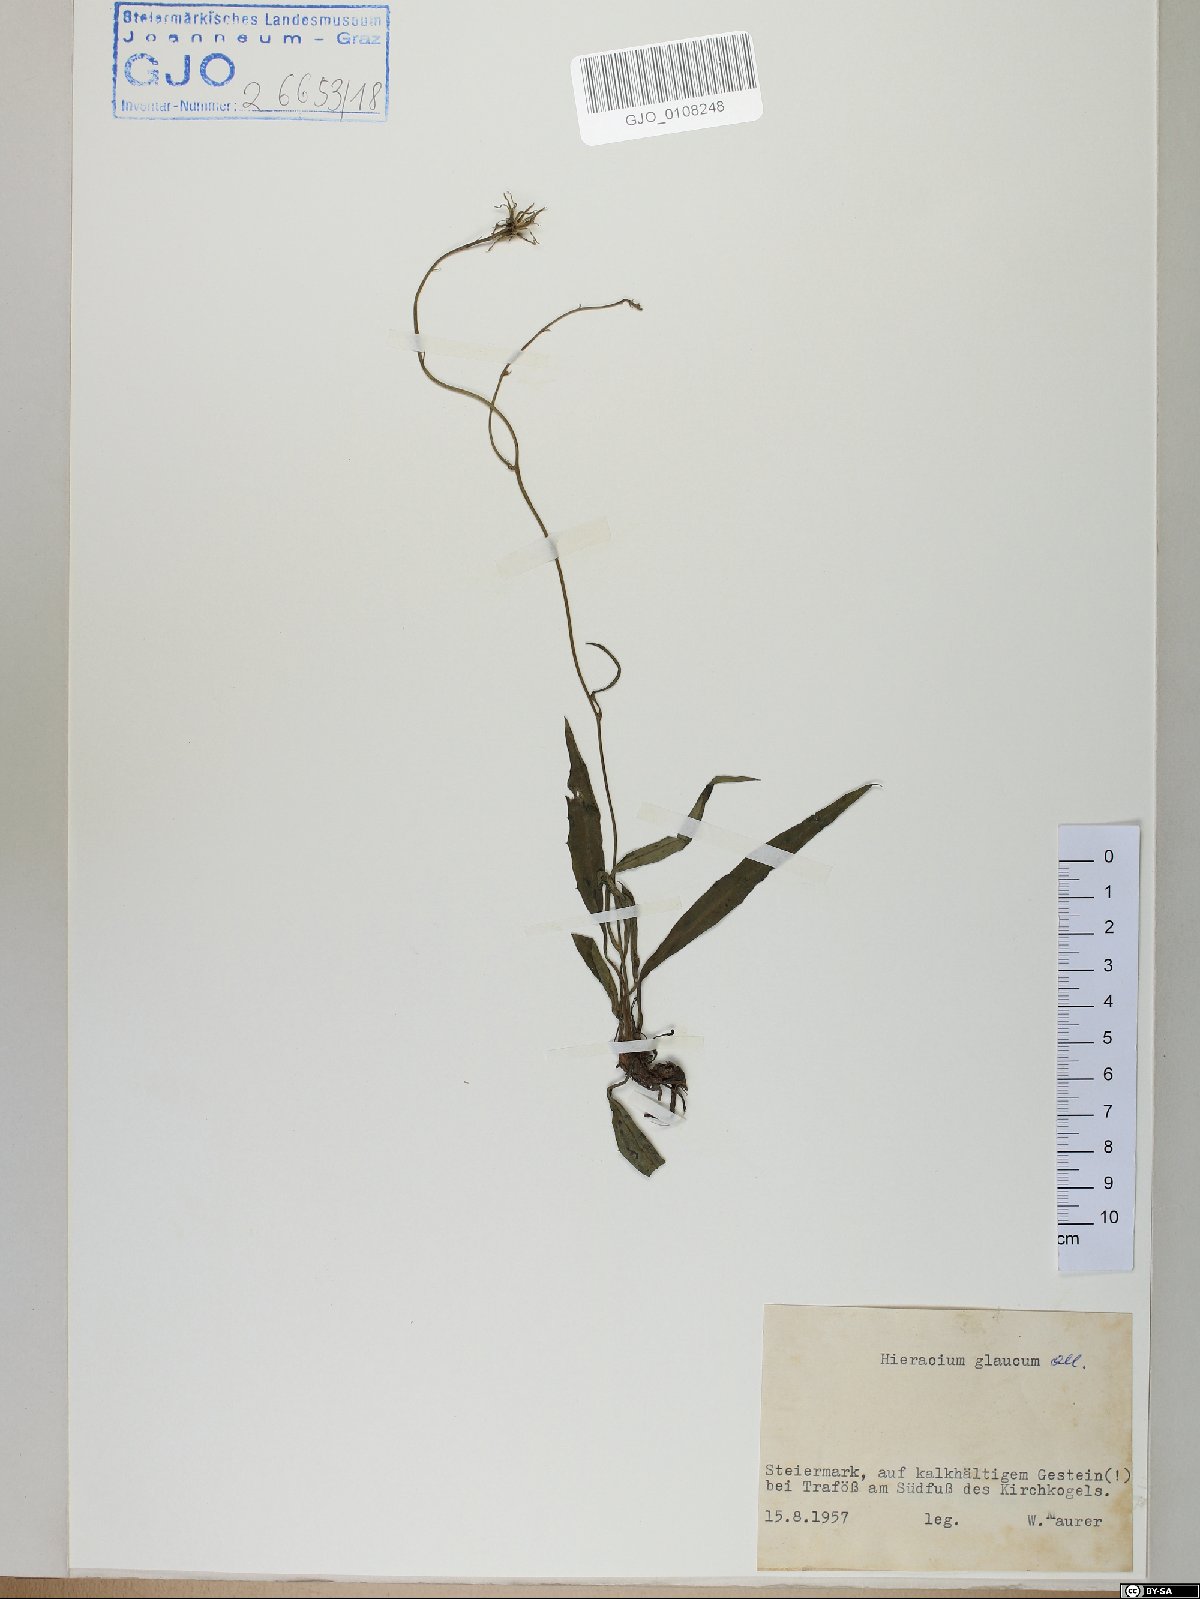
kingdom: Plantae
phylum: Tracheophyta
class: Magnoliopsida
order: Asterales
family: Asteraceae
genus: Hieracium
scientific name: Hieracium glaucum
